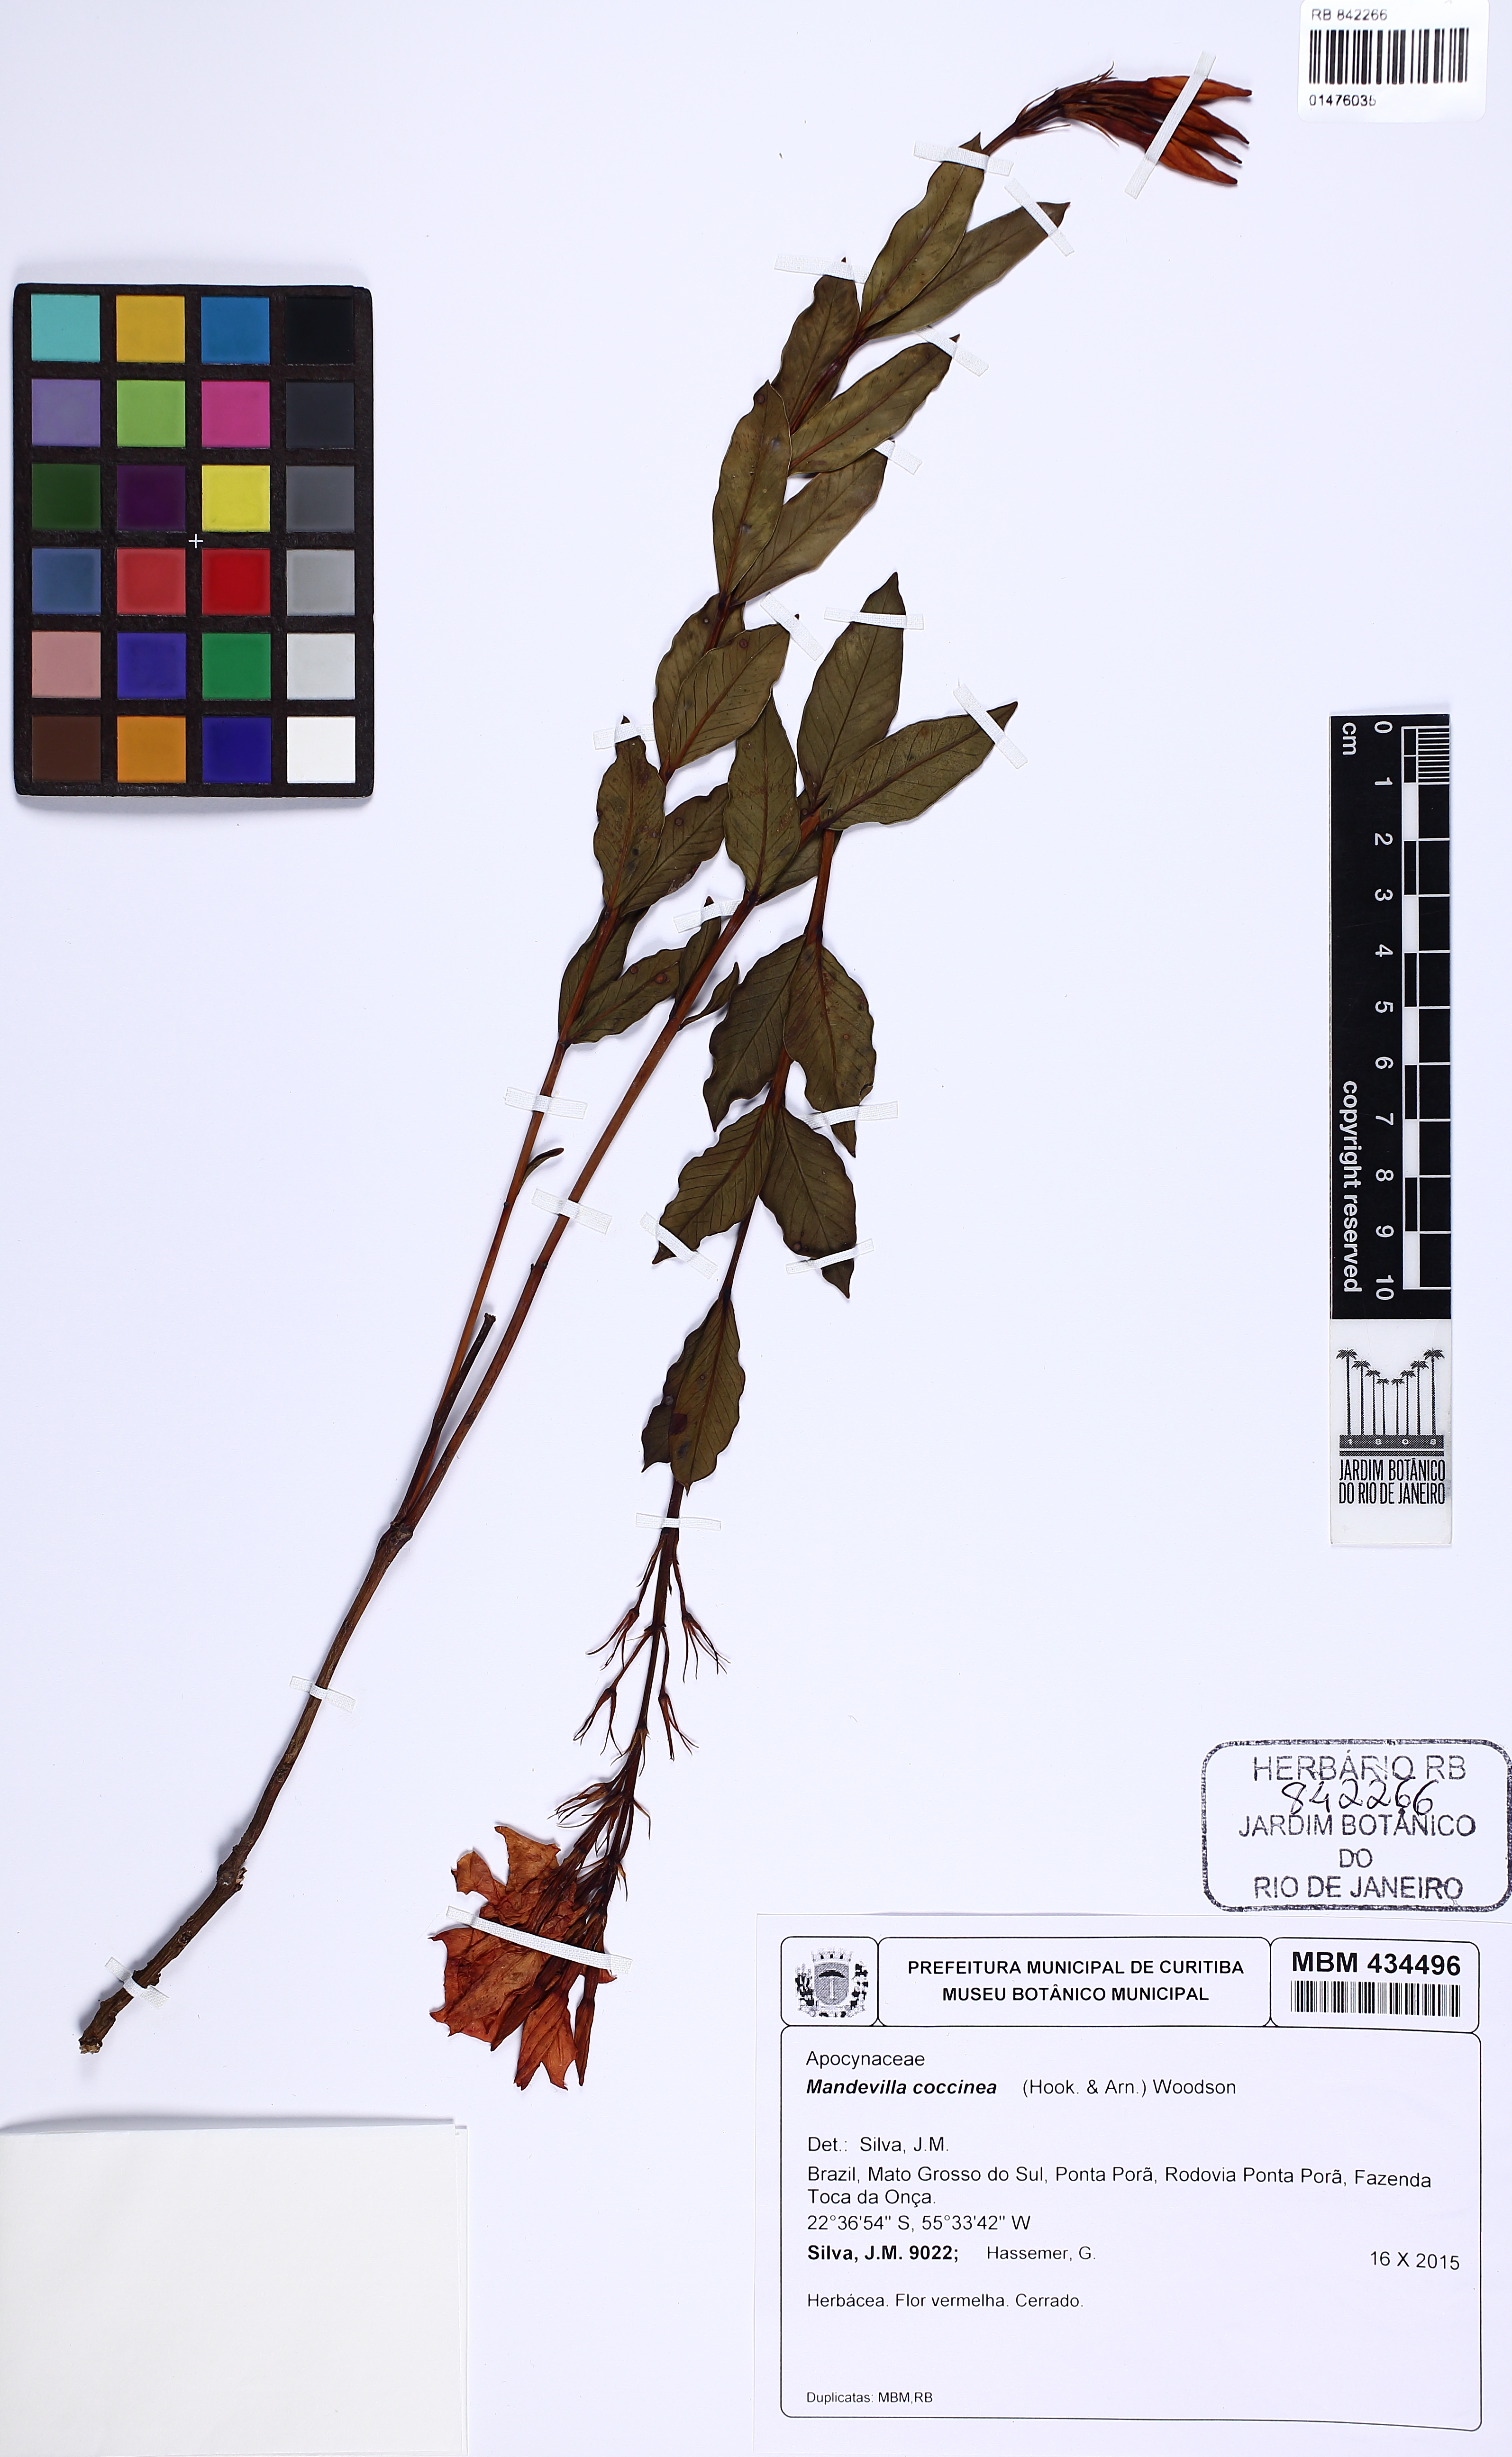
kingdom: Plantae
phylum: Tracheophyta
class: Magnoliopsida
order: Gentianales
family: Apocynaceae
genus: Mandevilla
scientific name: Mandevilla coccinea
